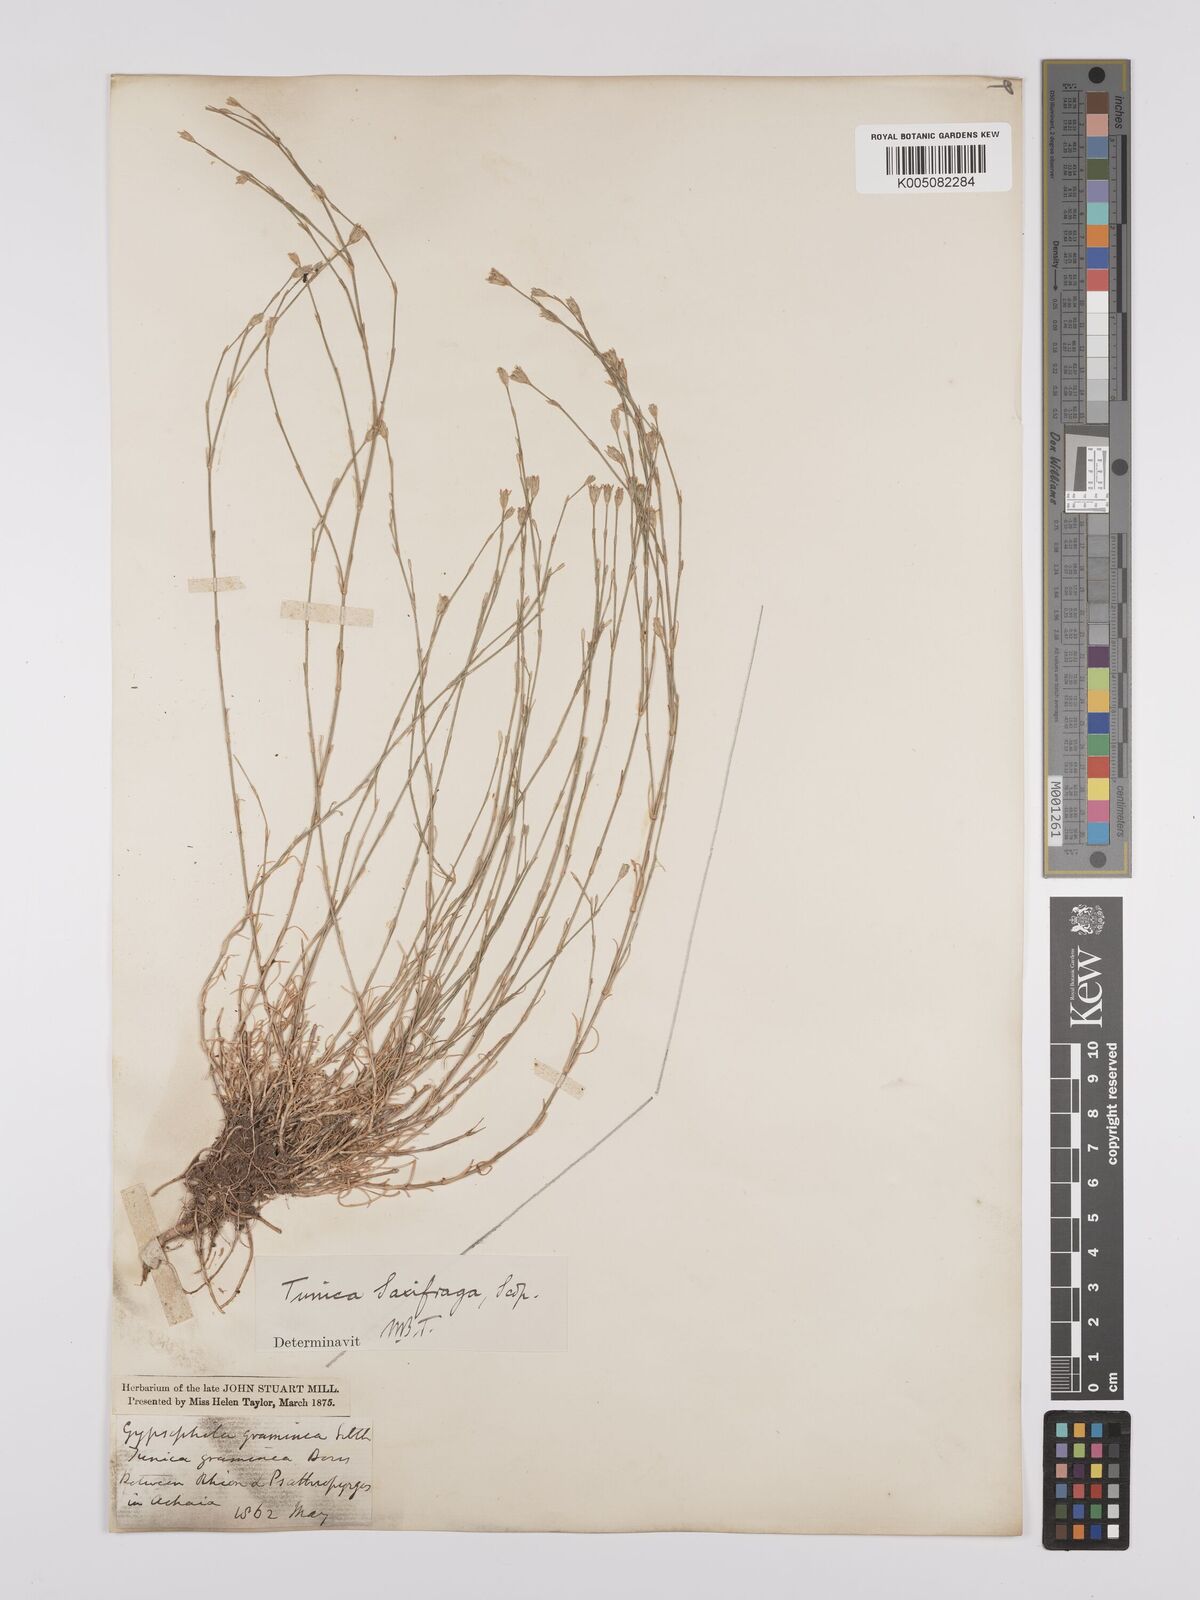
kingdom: Plantae
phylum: Tracheophyta
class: Magnoliopsida
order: Caryophyllales
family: Caryophyllaceae
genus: Petrorhagia
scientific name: Petrorhagia saxifraga
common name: Tunicflower
